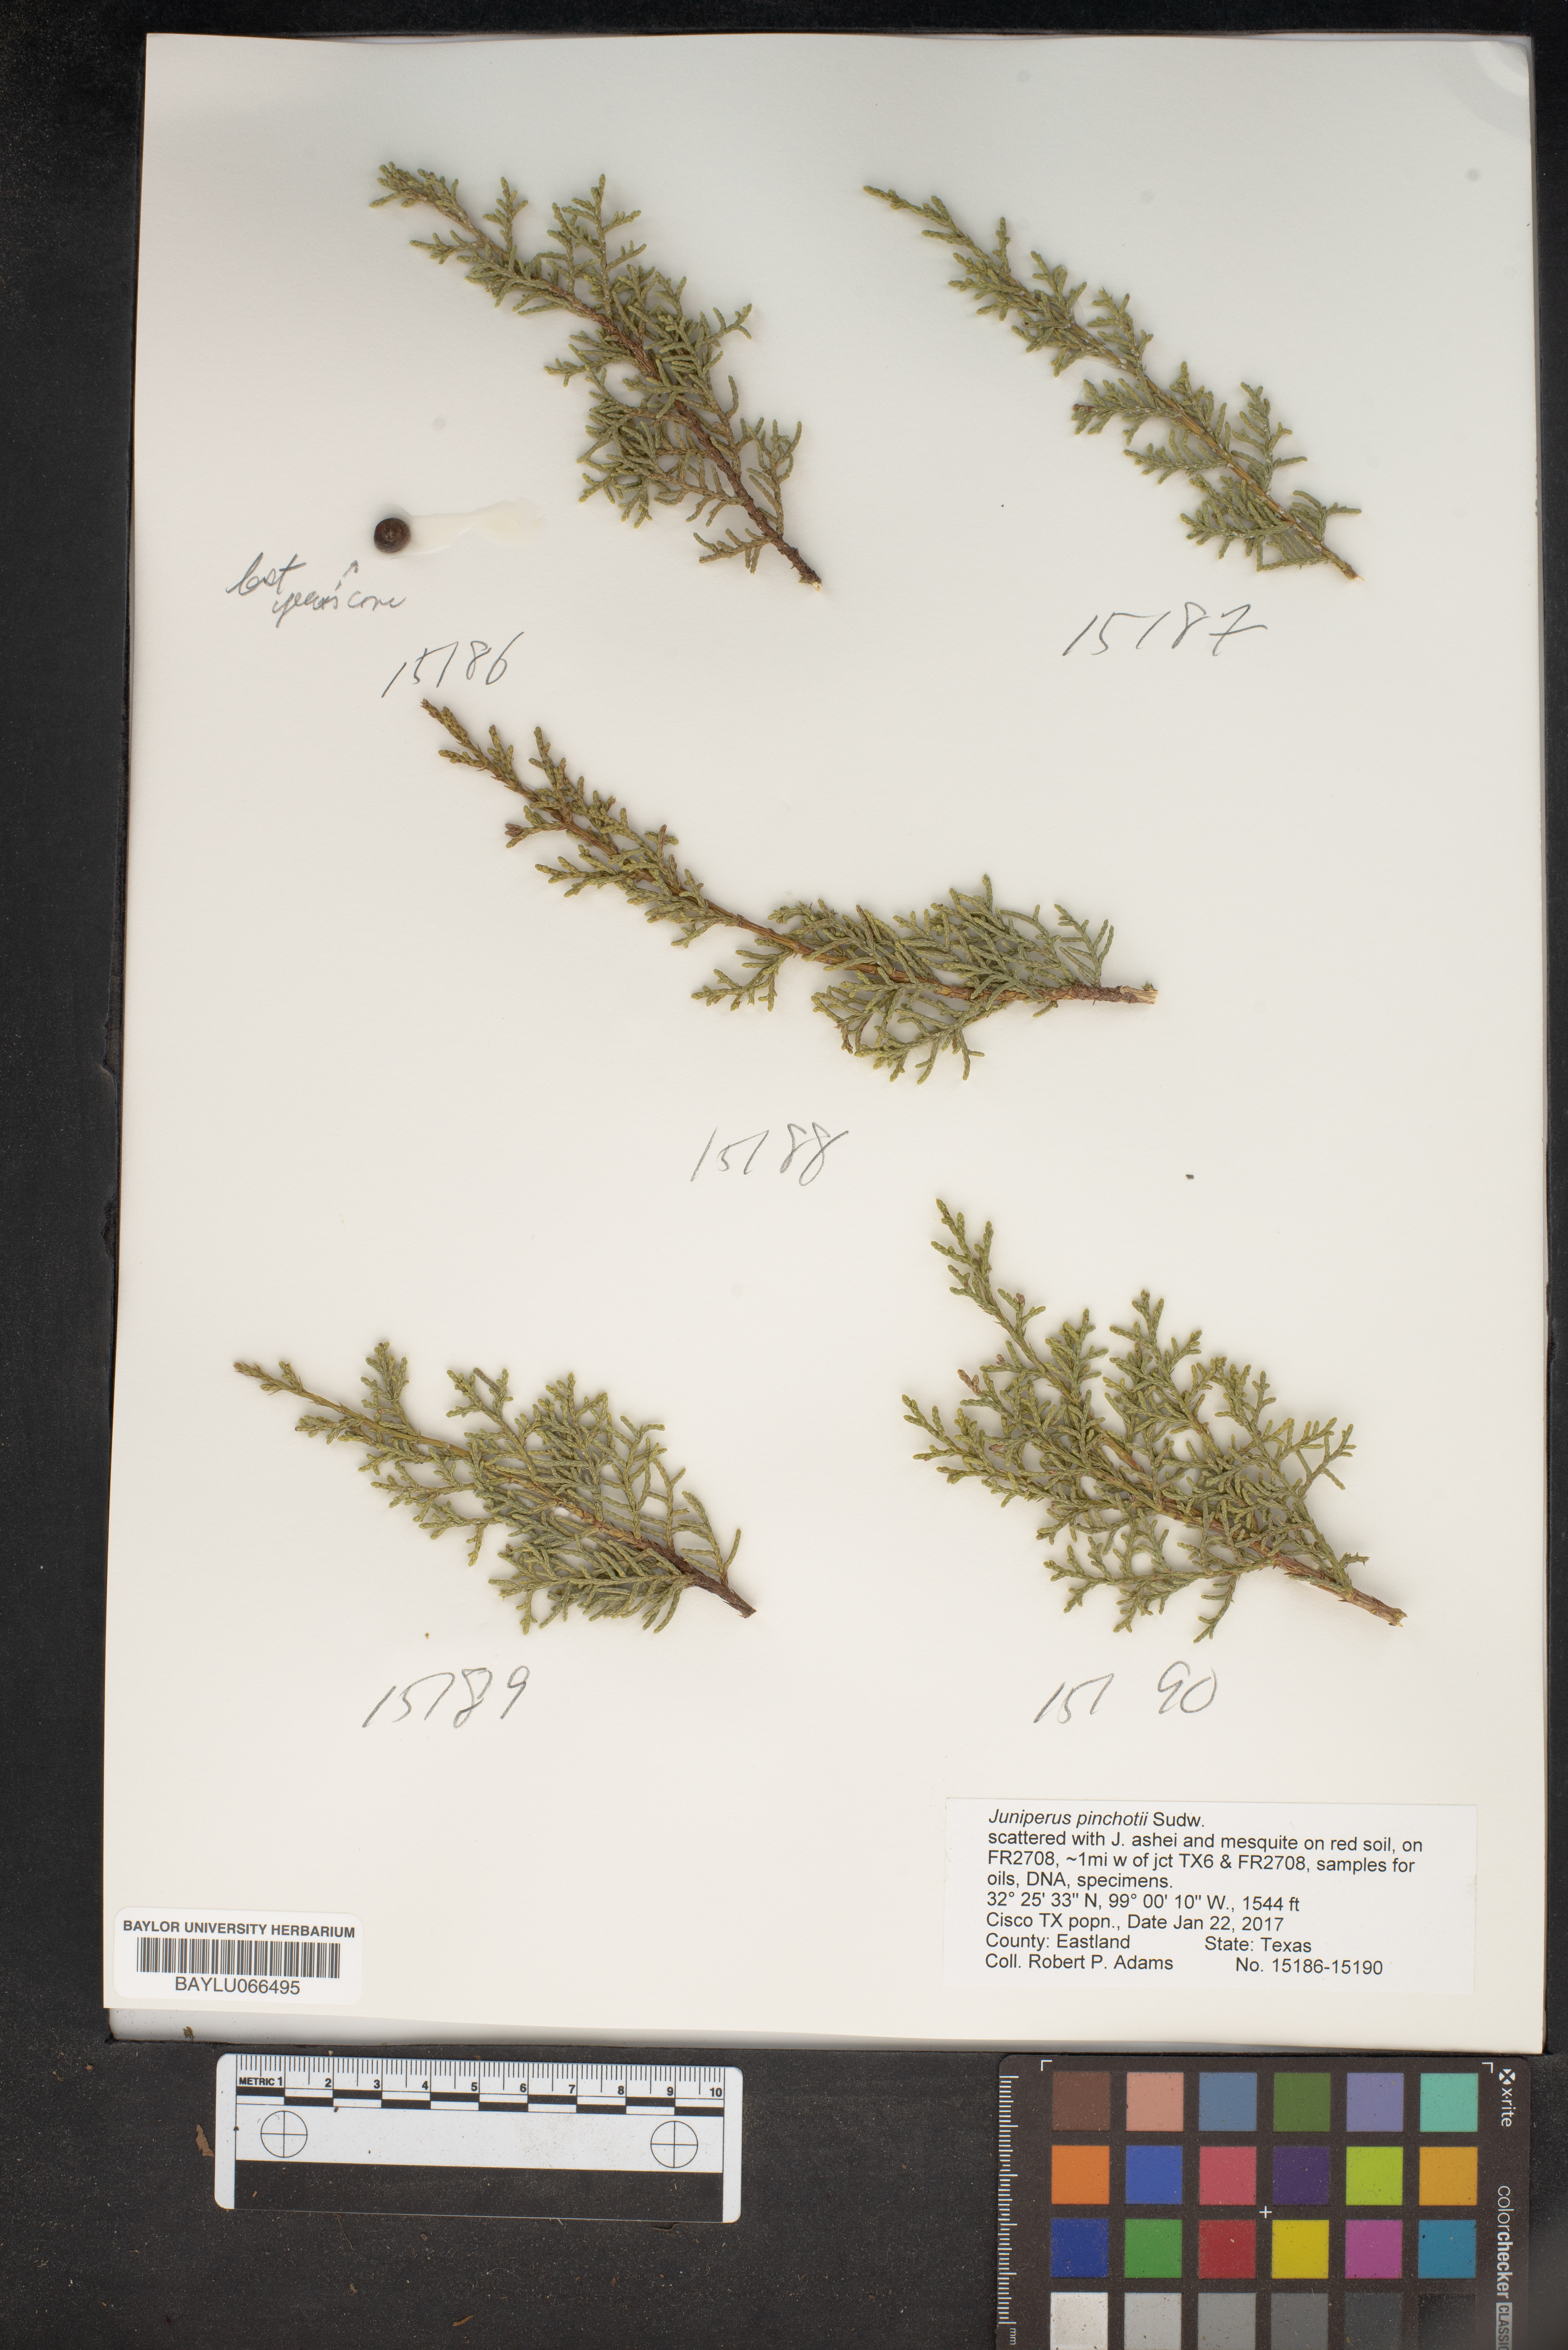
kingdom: Plantae
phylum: Tracheophyta
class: Pinopsida
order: Pinales
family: Cupressaceae
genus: Juniperus
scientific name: Juniperus pinchotii
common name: Pinchot juniper
